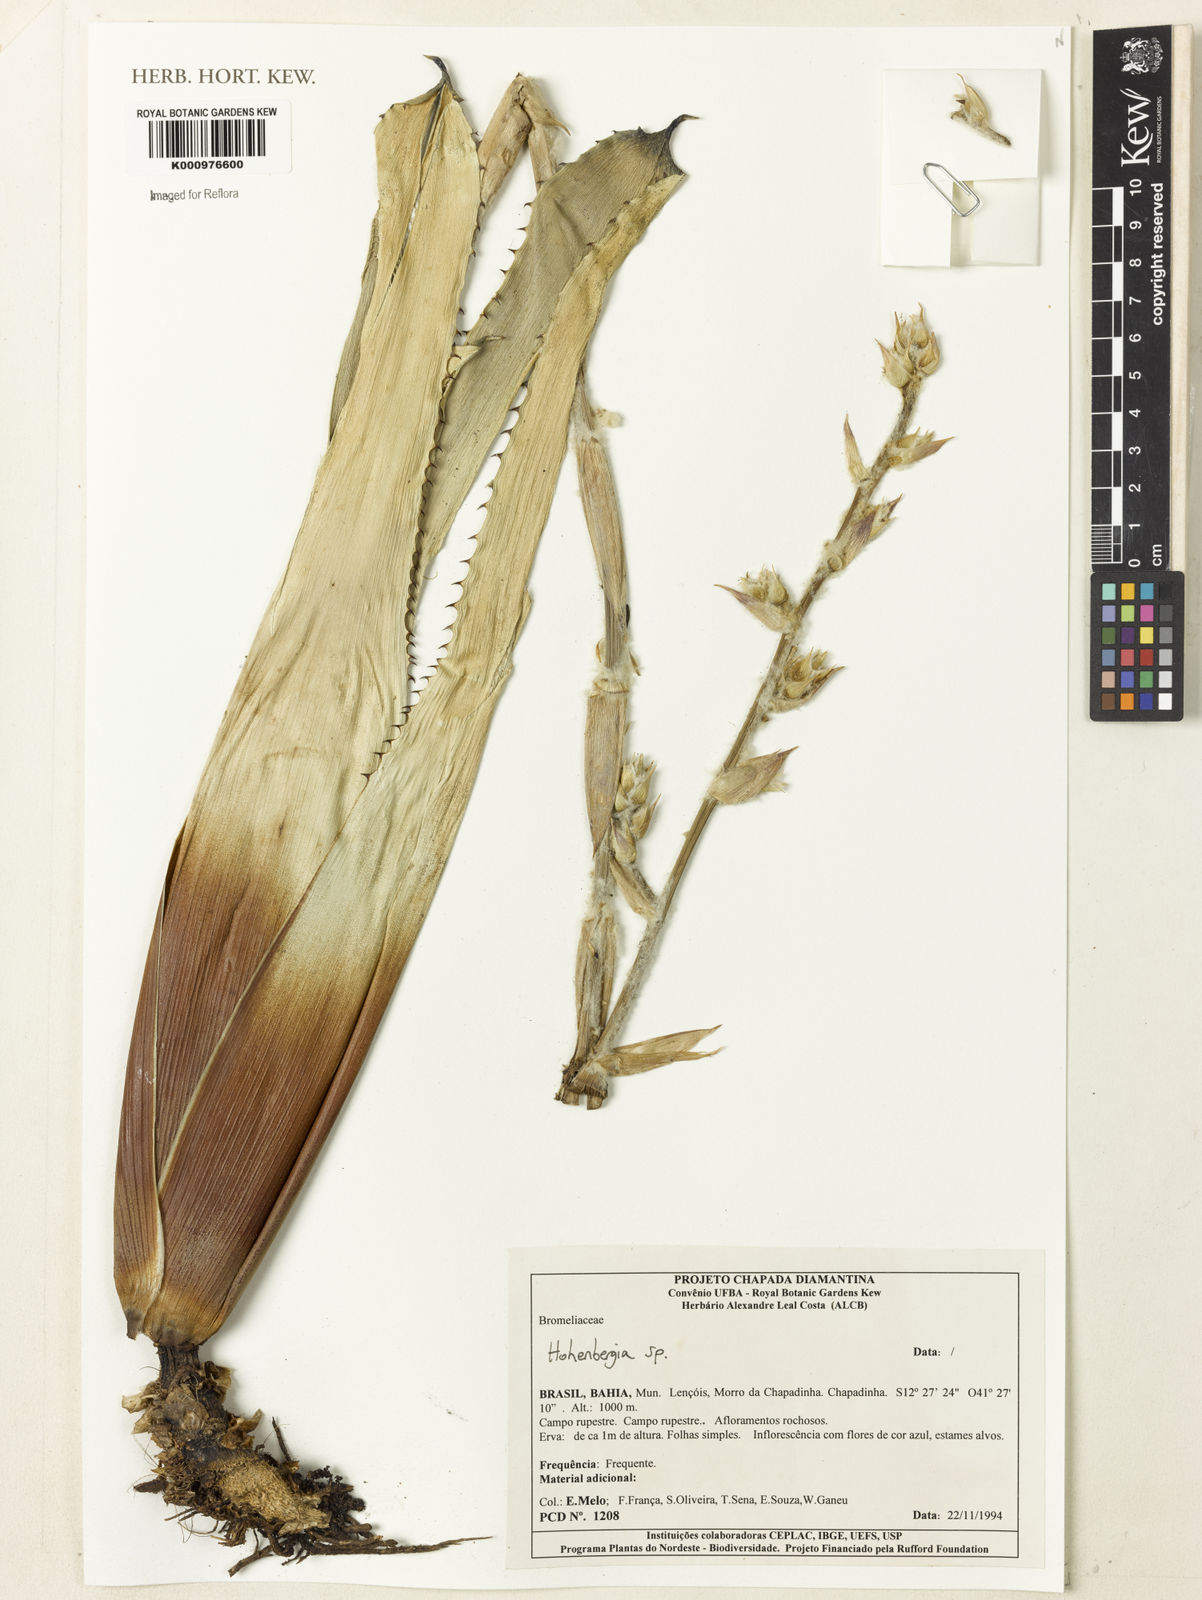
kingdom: Plantae
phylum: Tracheophyta
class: Liliopsida
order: Poales
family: Bromeliaceae
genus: Hohenbergia
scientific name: Hohenbergia
